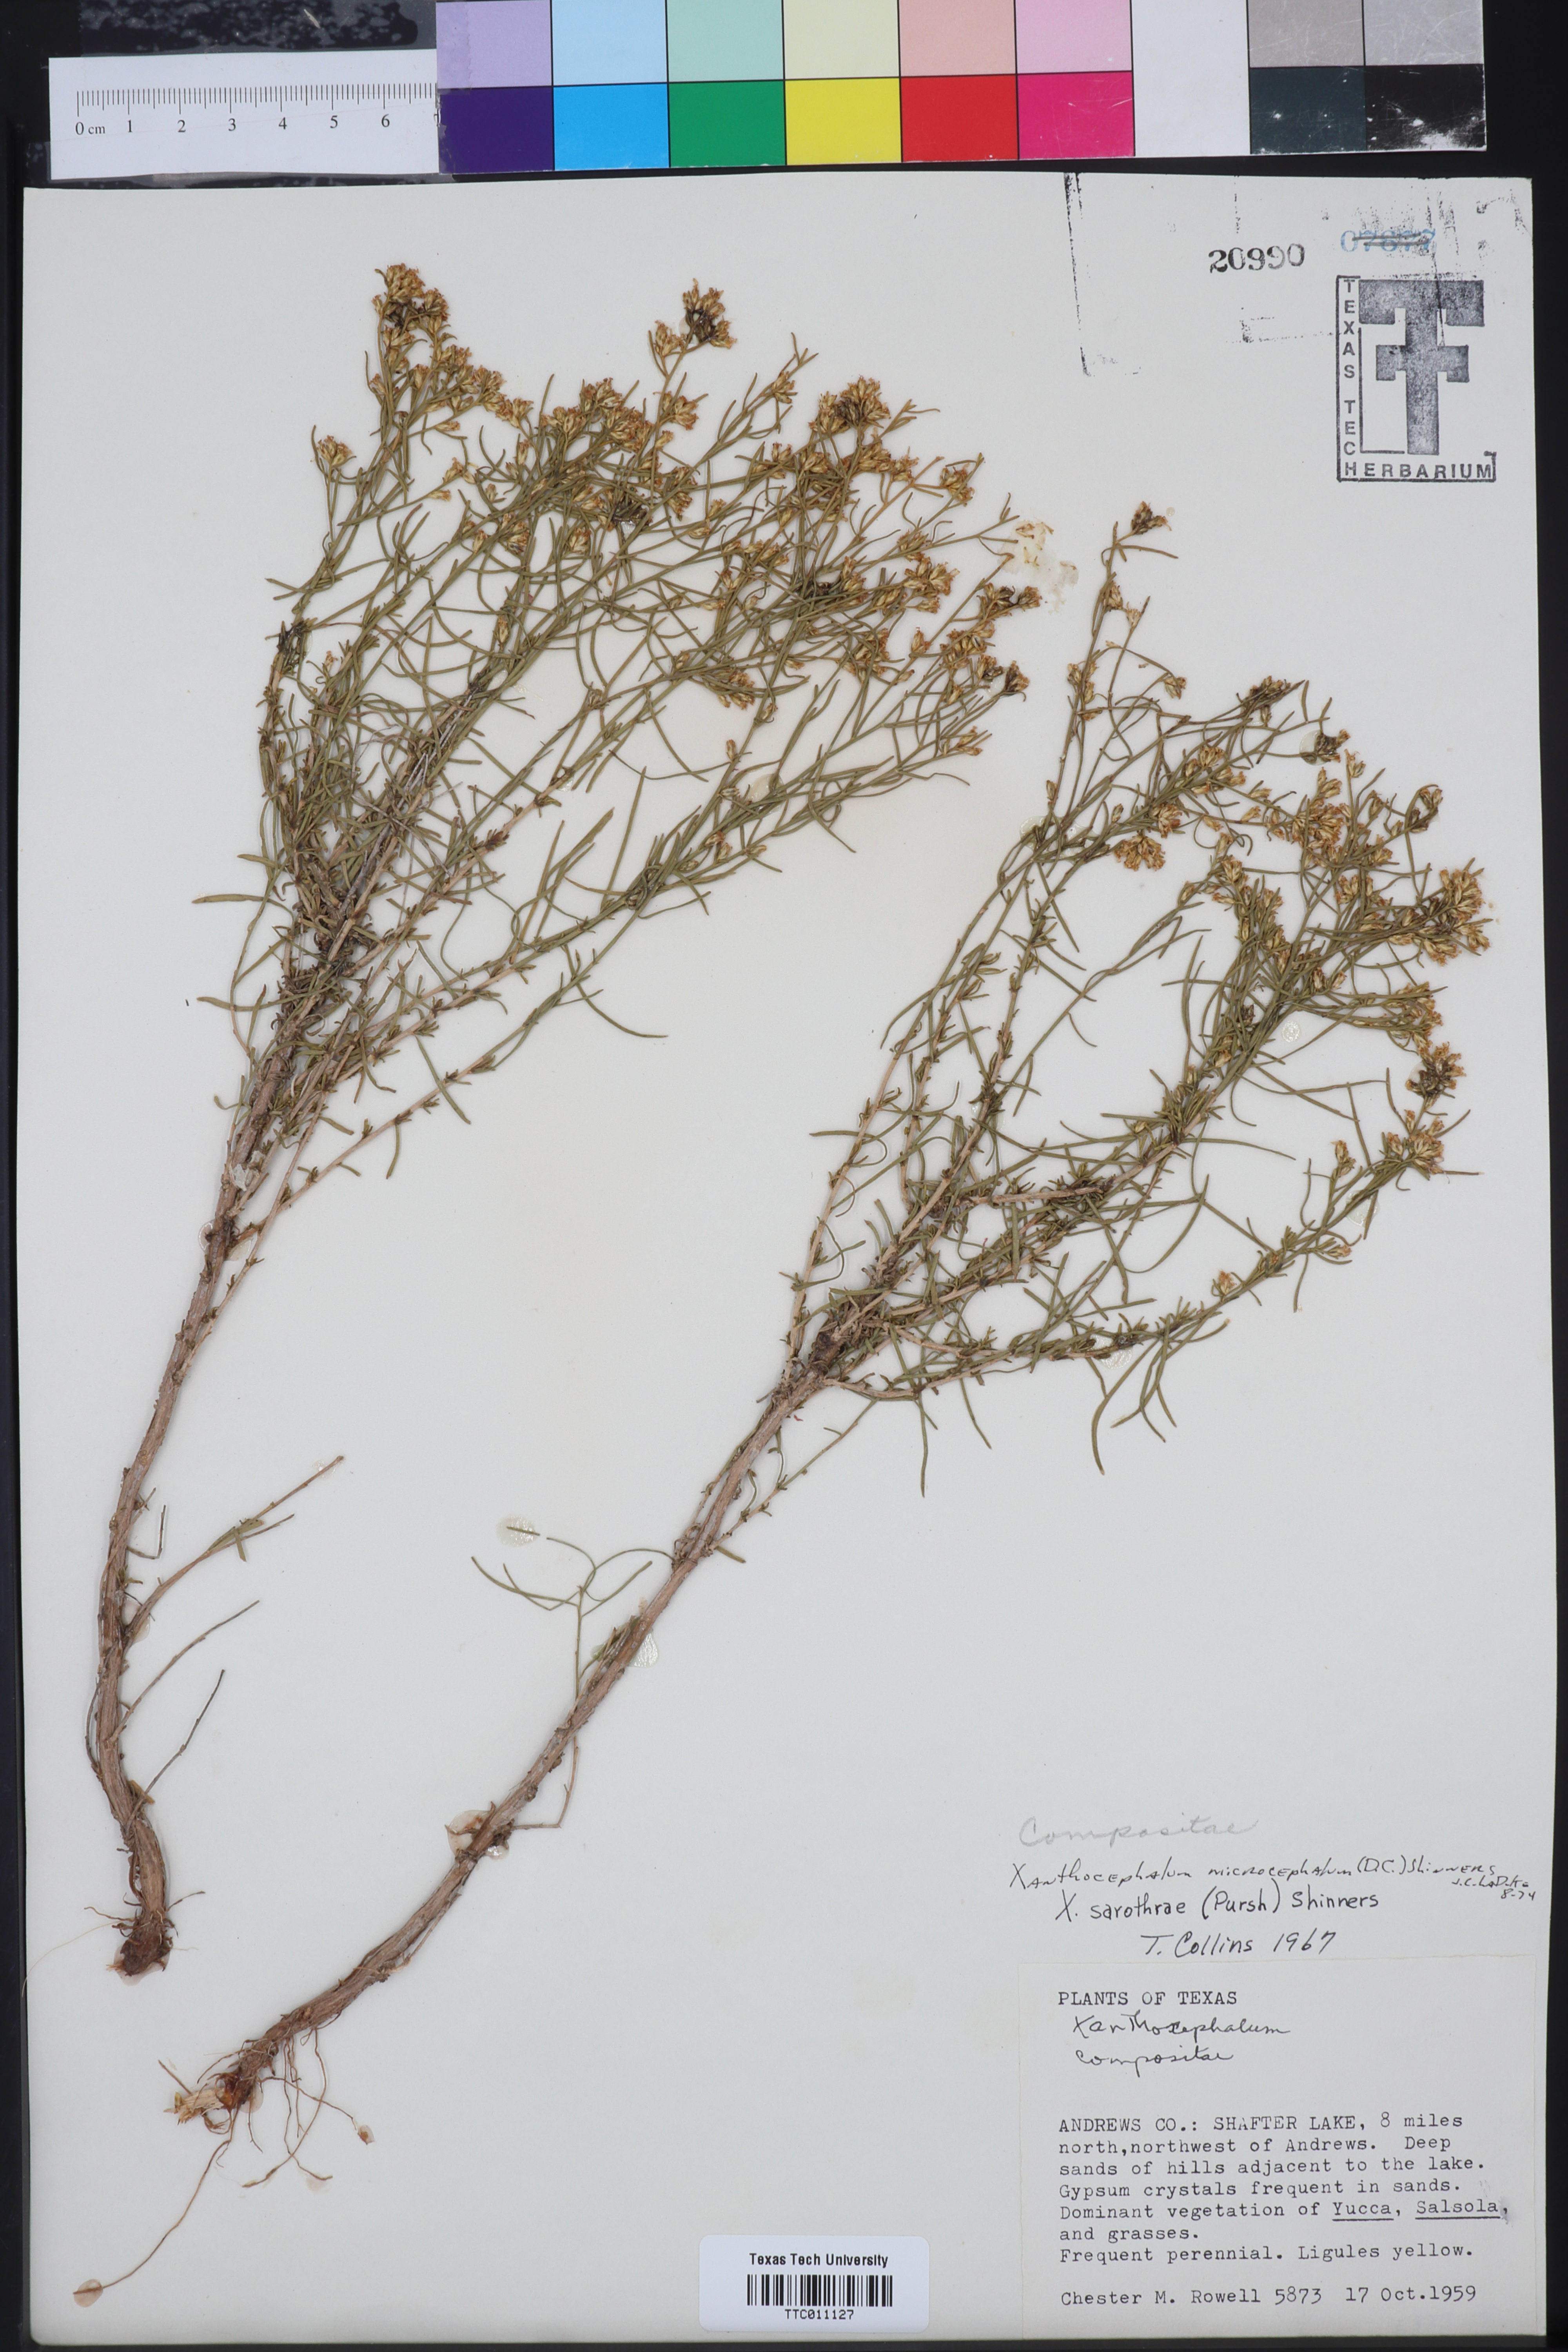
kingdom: Plantae
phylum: Tracheophyta
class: Magnoliopsida
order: Asterales
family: Asteraceae
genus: Gutierrezia
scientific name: Gutierrezia microcephala
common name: Thread snakeweed
